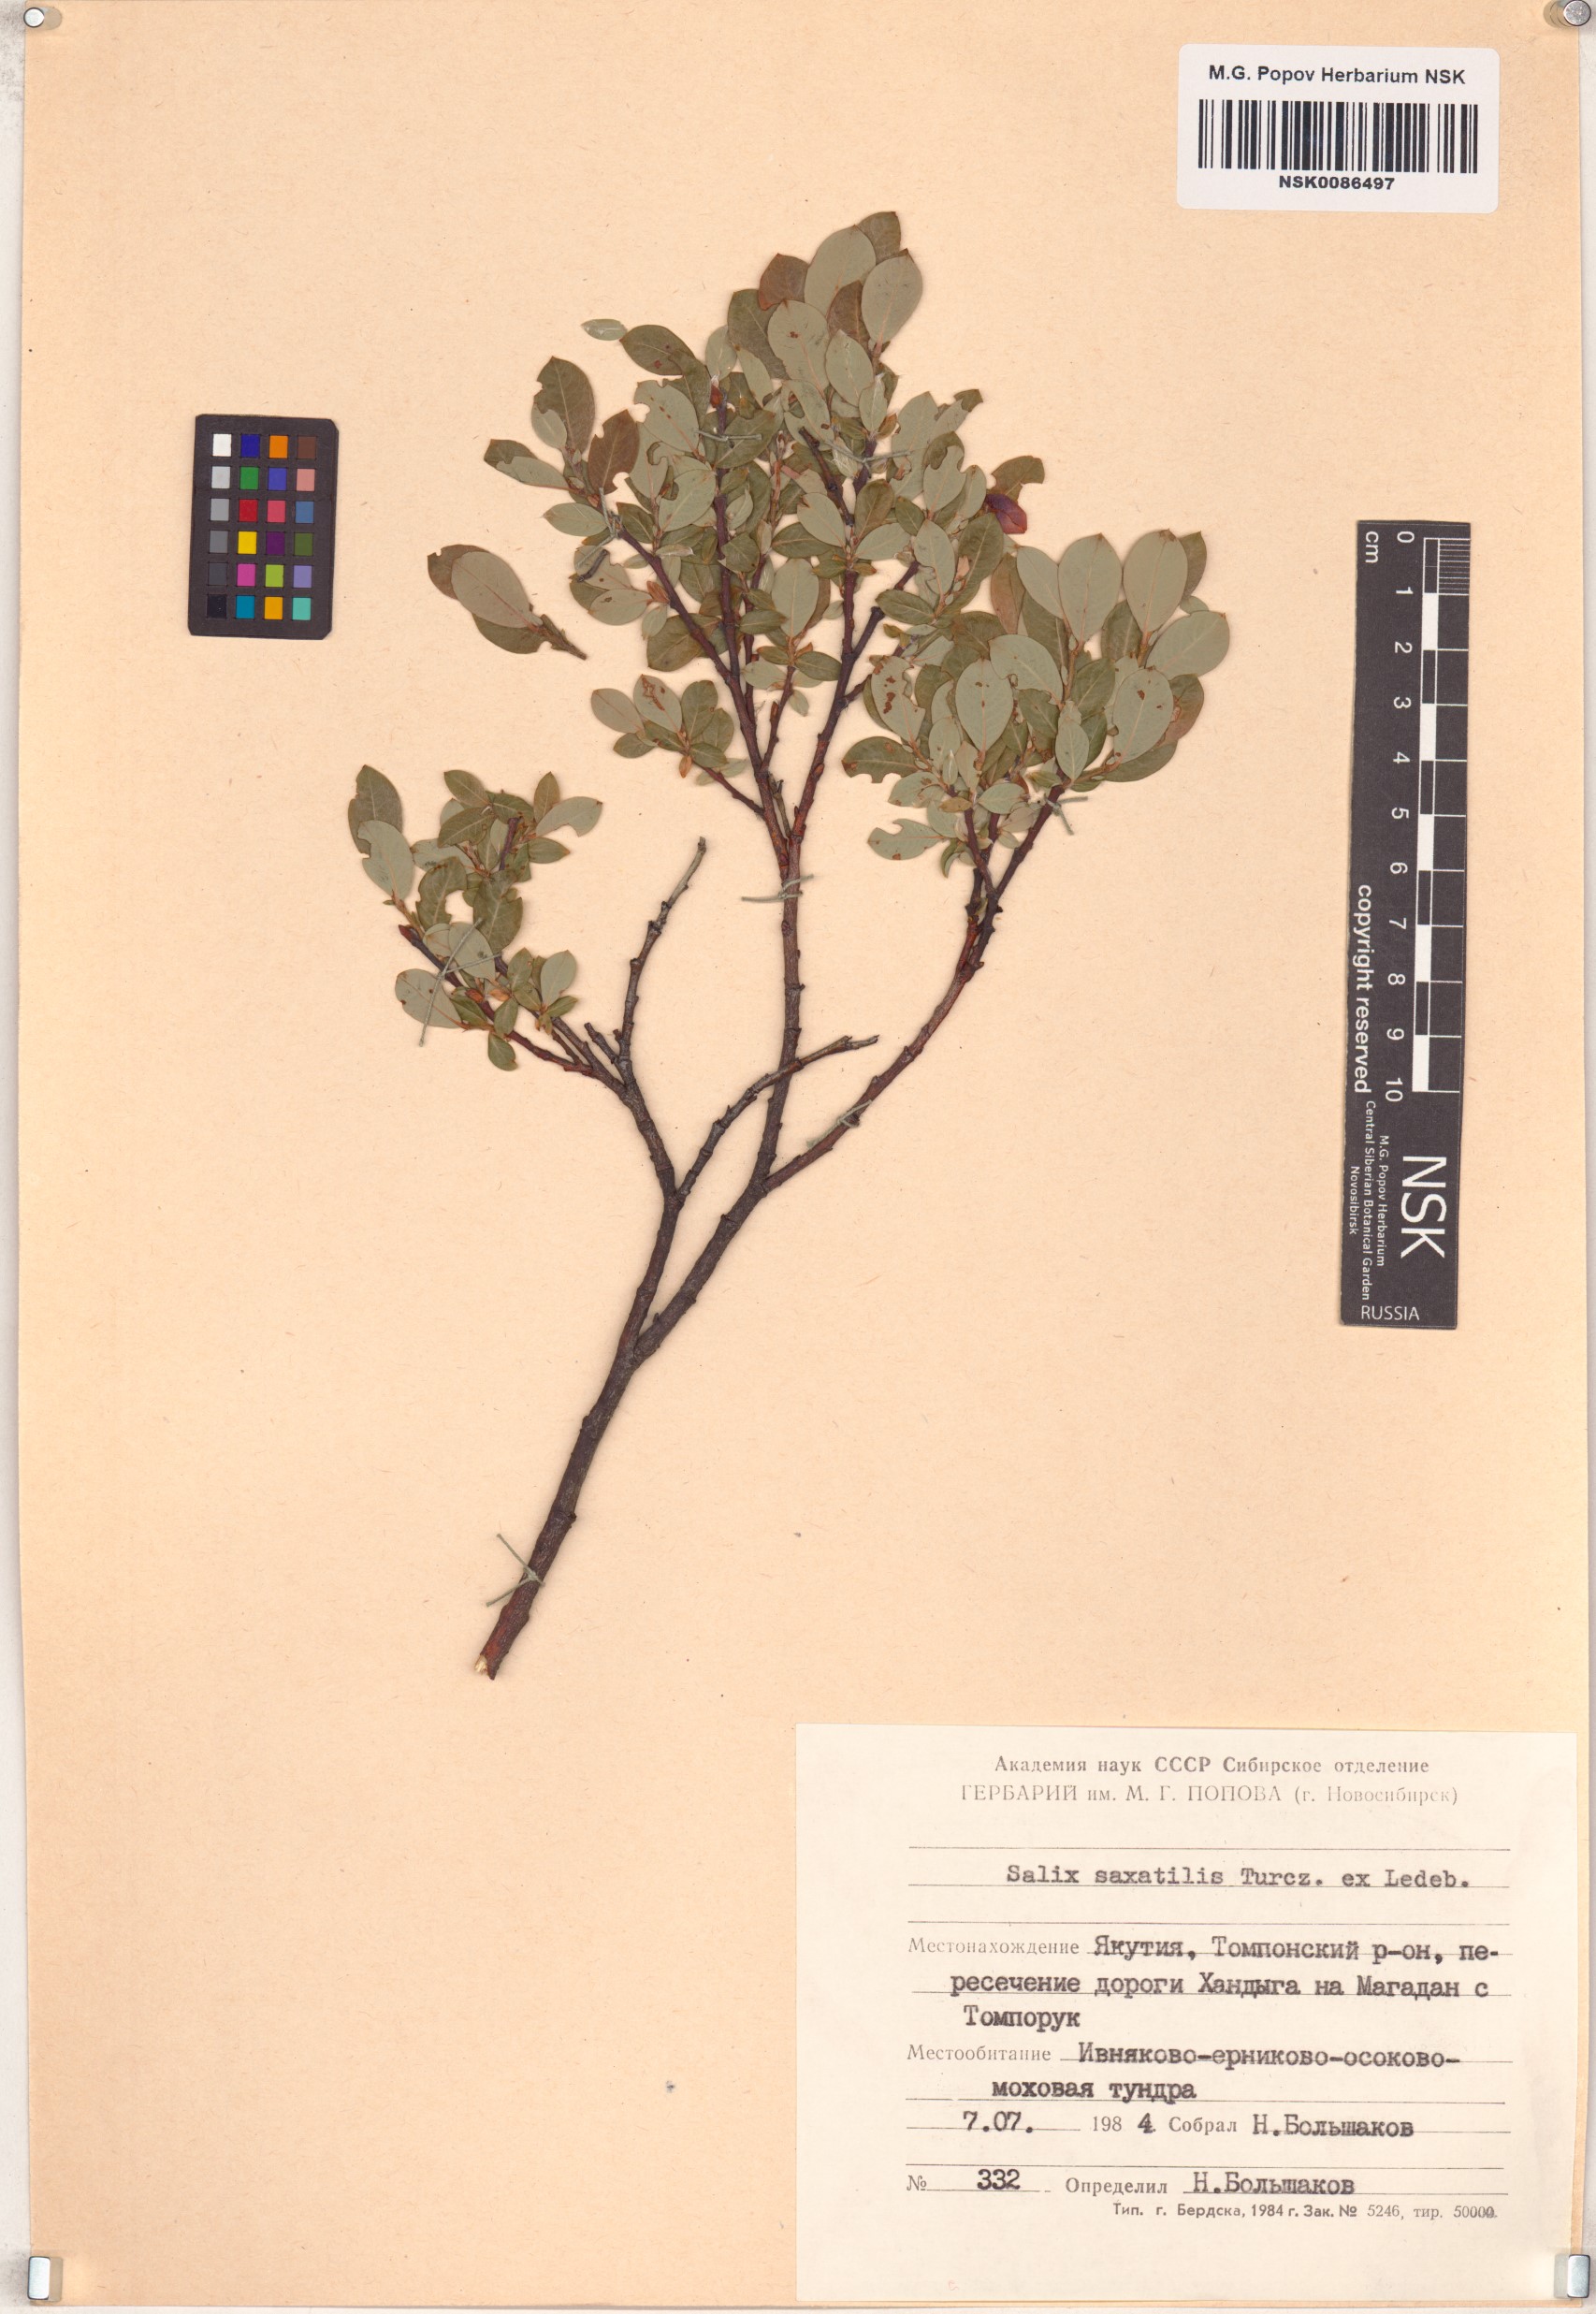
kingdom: Plantae
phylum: Tracheophyta
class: Magnoliopsida
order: Malpighiales
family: Salicaceae
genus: Salix
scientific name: Salix saxatilis
